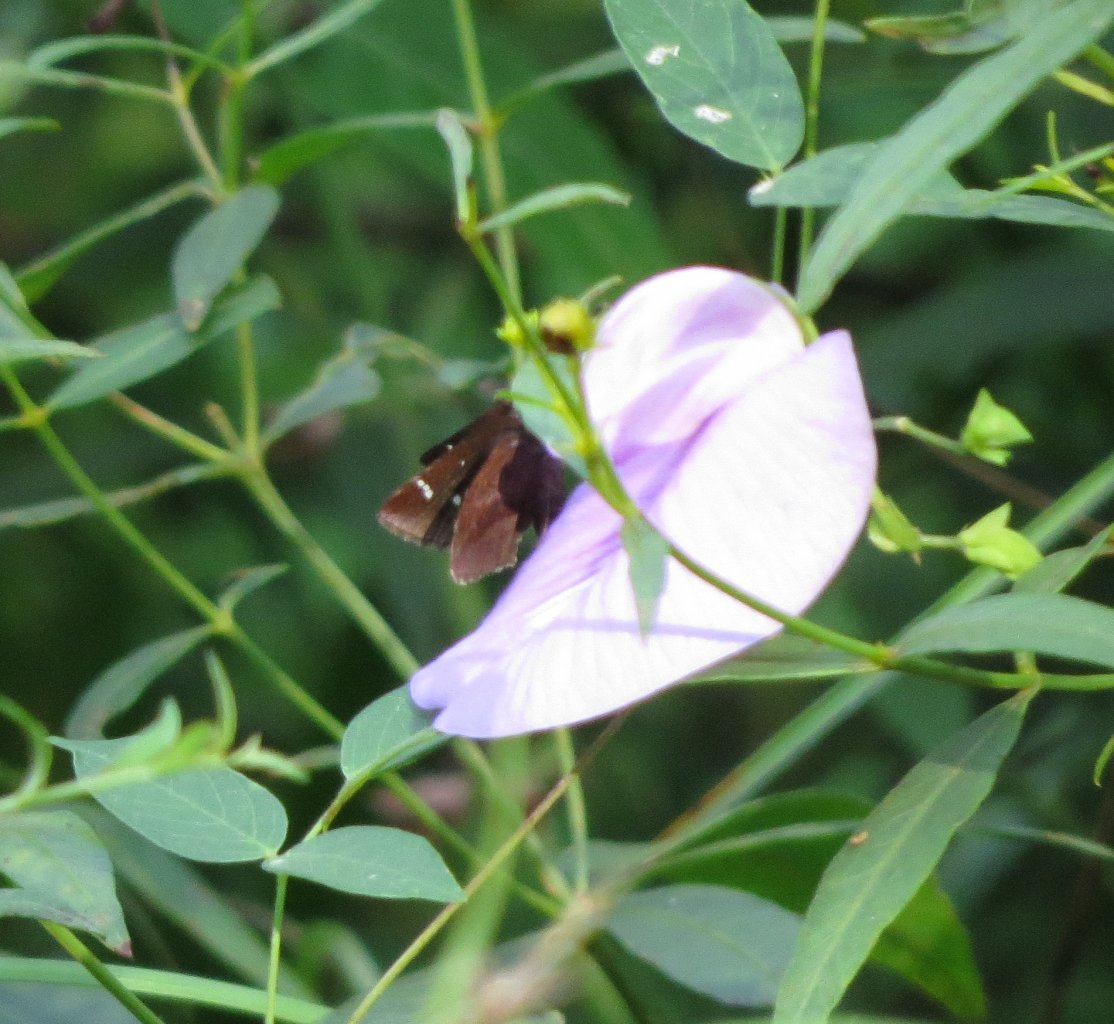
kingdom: Animalia
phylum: Arthropoda
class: Insecta
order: Lepidoptera
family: Hesperiidae
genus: Lerema
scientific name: Lerema accius
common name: Clouded Skipper
